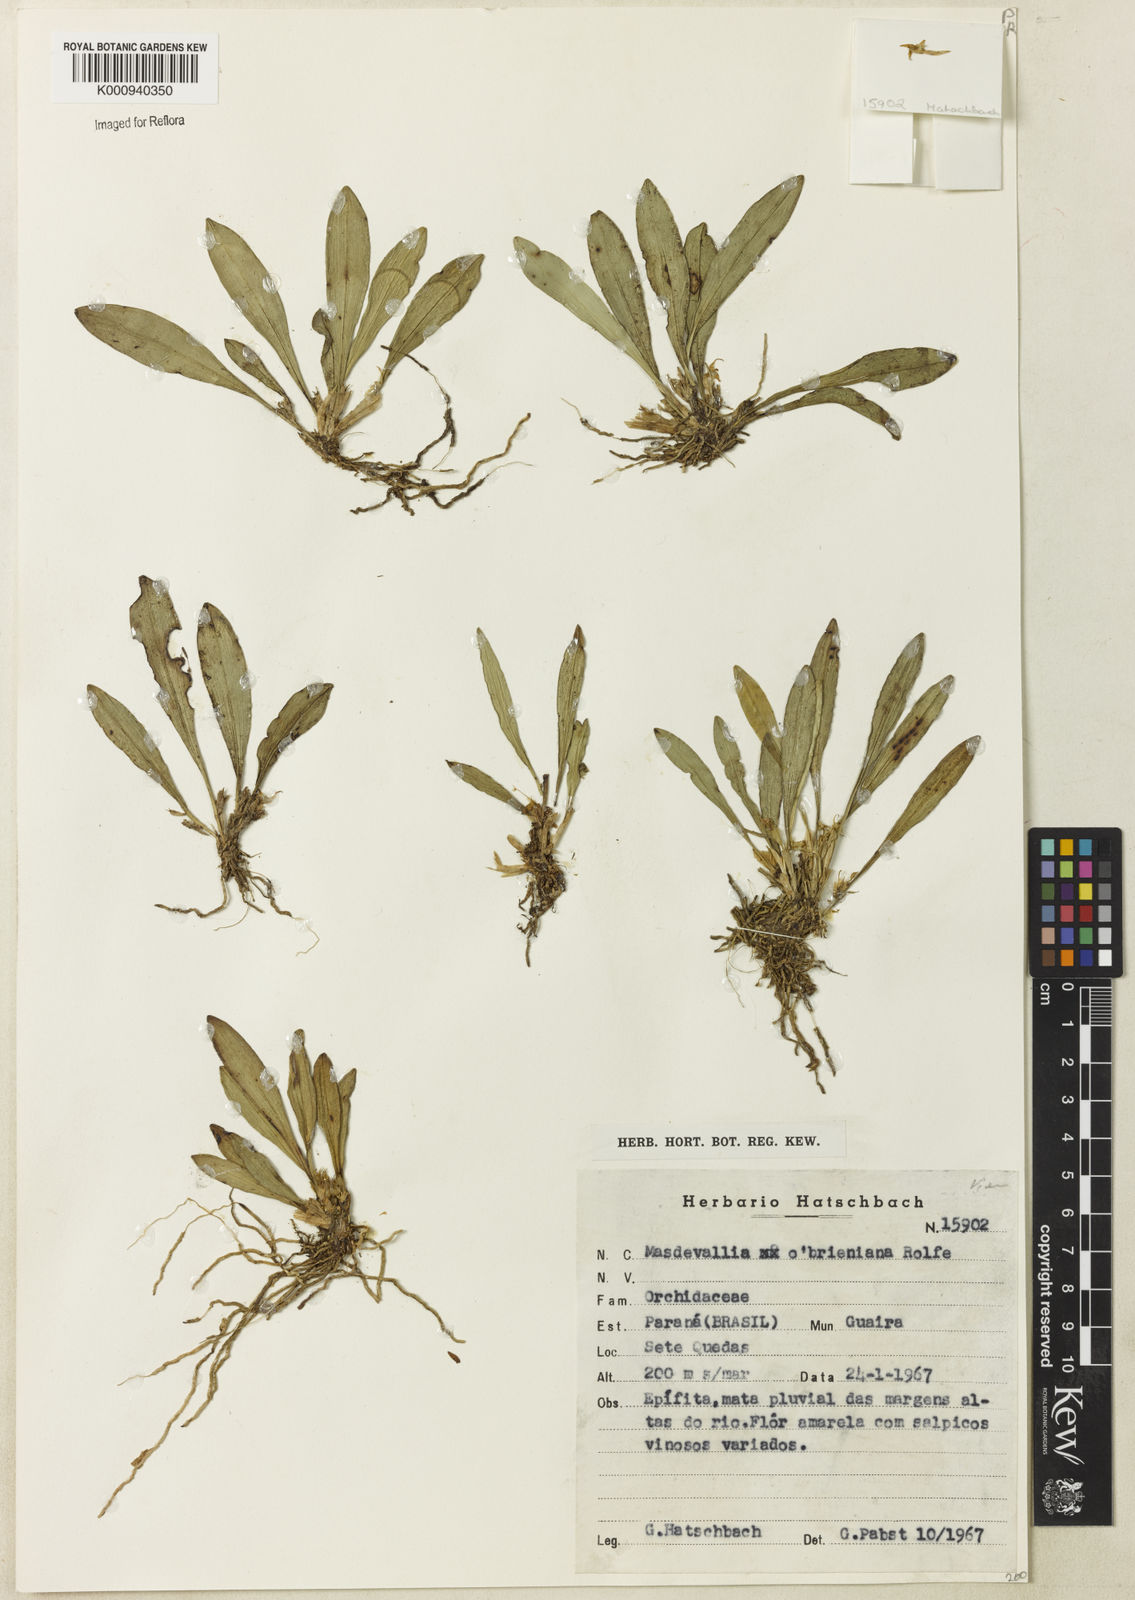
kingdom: Plantae
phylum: Tracheophyta
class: Liliopsida
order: Asparagales
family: Orchidaceae
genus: Dryadella
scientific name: Dryadella aviceps
